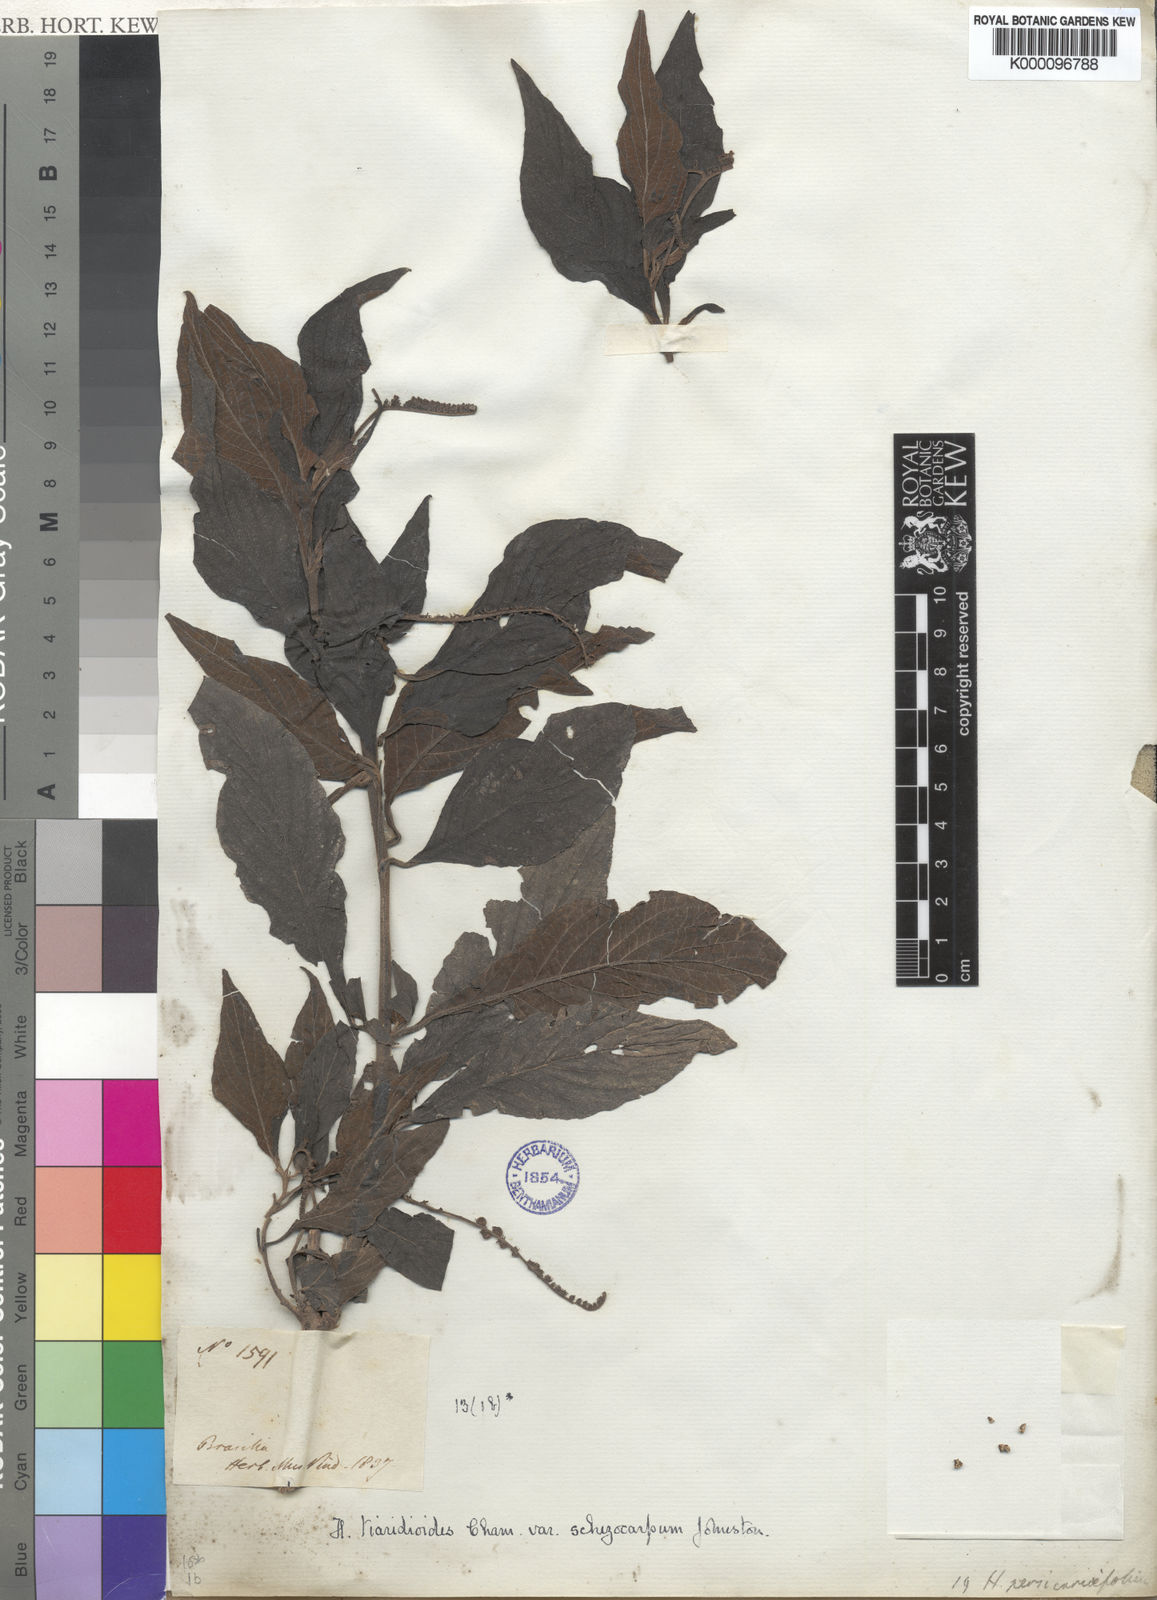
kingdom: Plantae
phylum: Tracheophyta
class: Magnoliopsida
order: Boraginales
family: Heliotropiaceae
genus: Heliotropium
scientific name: Heliotropium transalpinum
